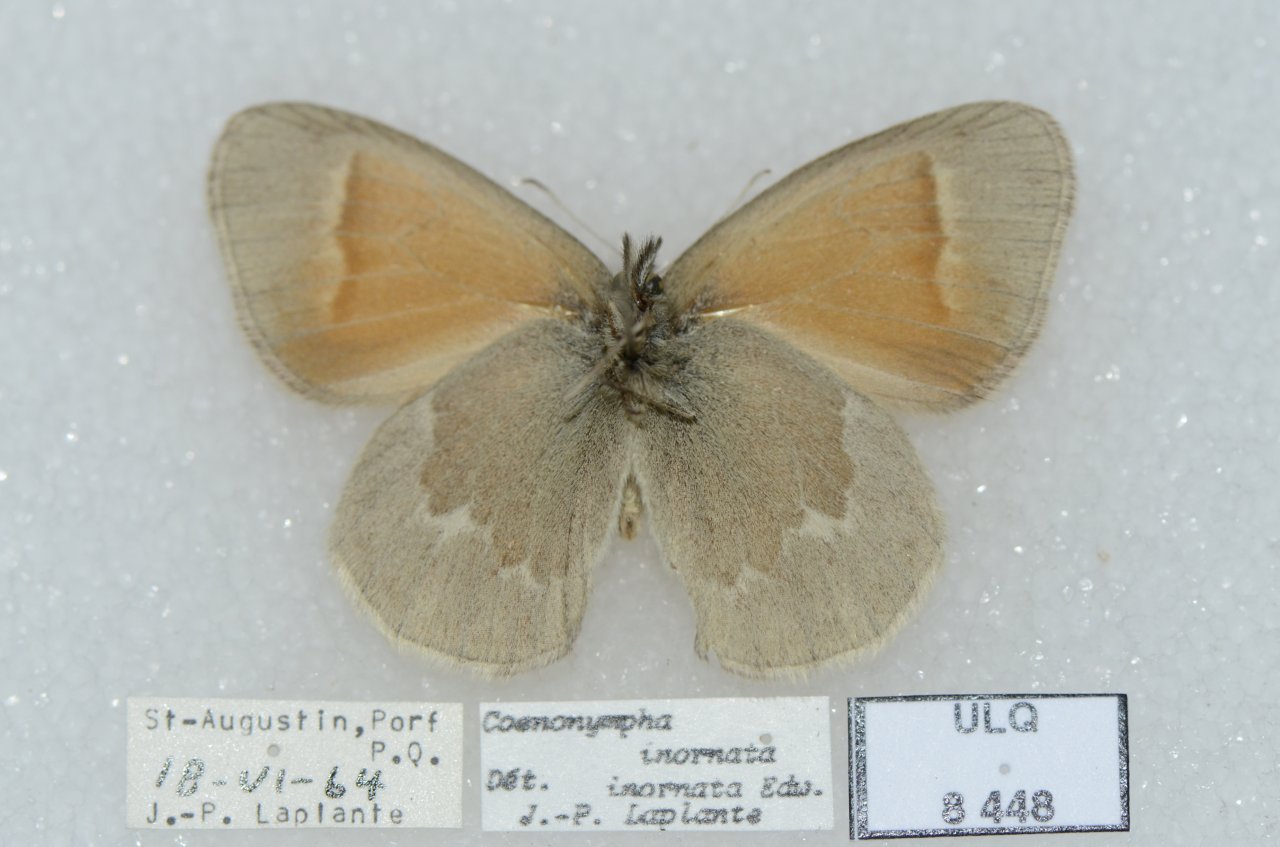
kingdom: Animalia
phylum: Arthropoda
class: Insecta
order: Lepidoptera
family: Nymphalidae
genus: Coenonympha
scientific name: Coenonympha tullia
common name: Large Heath
